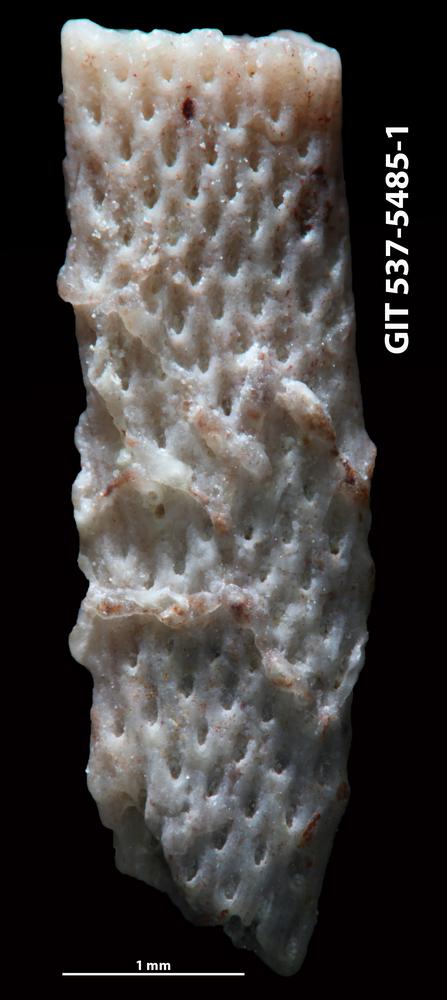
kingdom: Animalia
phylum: Bryozoa
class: Stenolaemata
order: Cyclostomatida
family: Corynotrypidae
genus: Corynotrypa
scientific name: Corynotrypa delicatula
